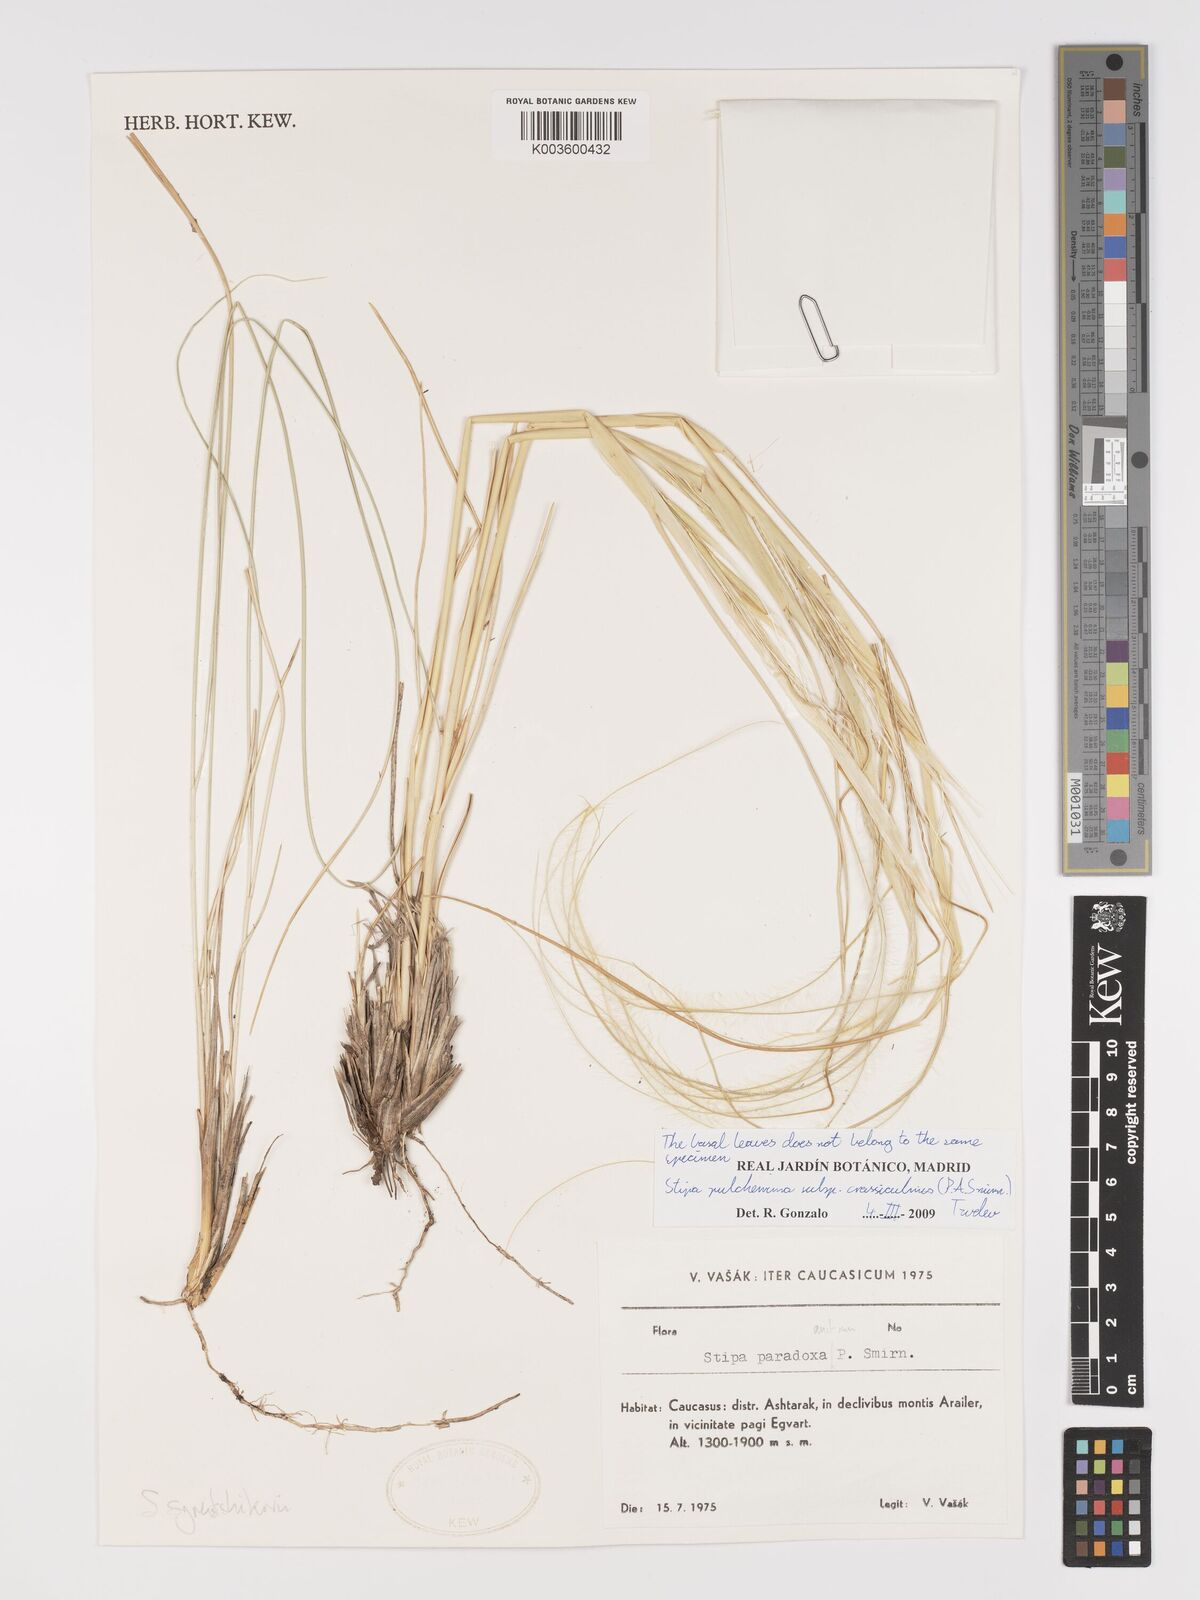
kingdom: Plantae
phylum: Tracheophyta
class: Liliopsida
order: Poales
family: Poaceae
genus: Stipa
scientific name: Stipa pulcherrima
